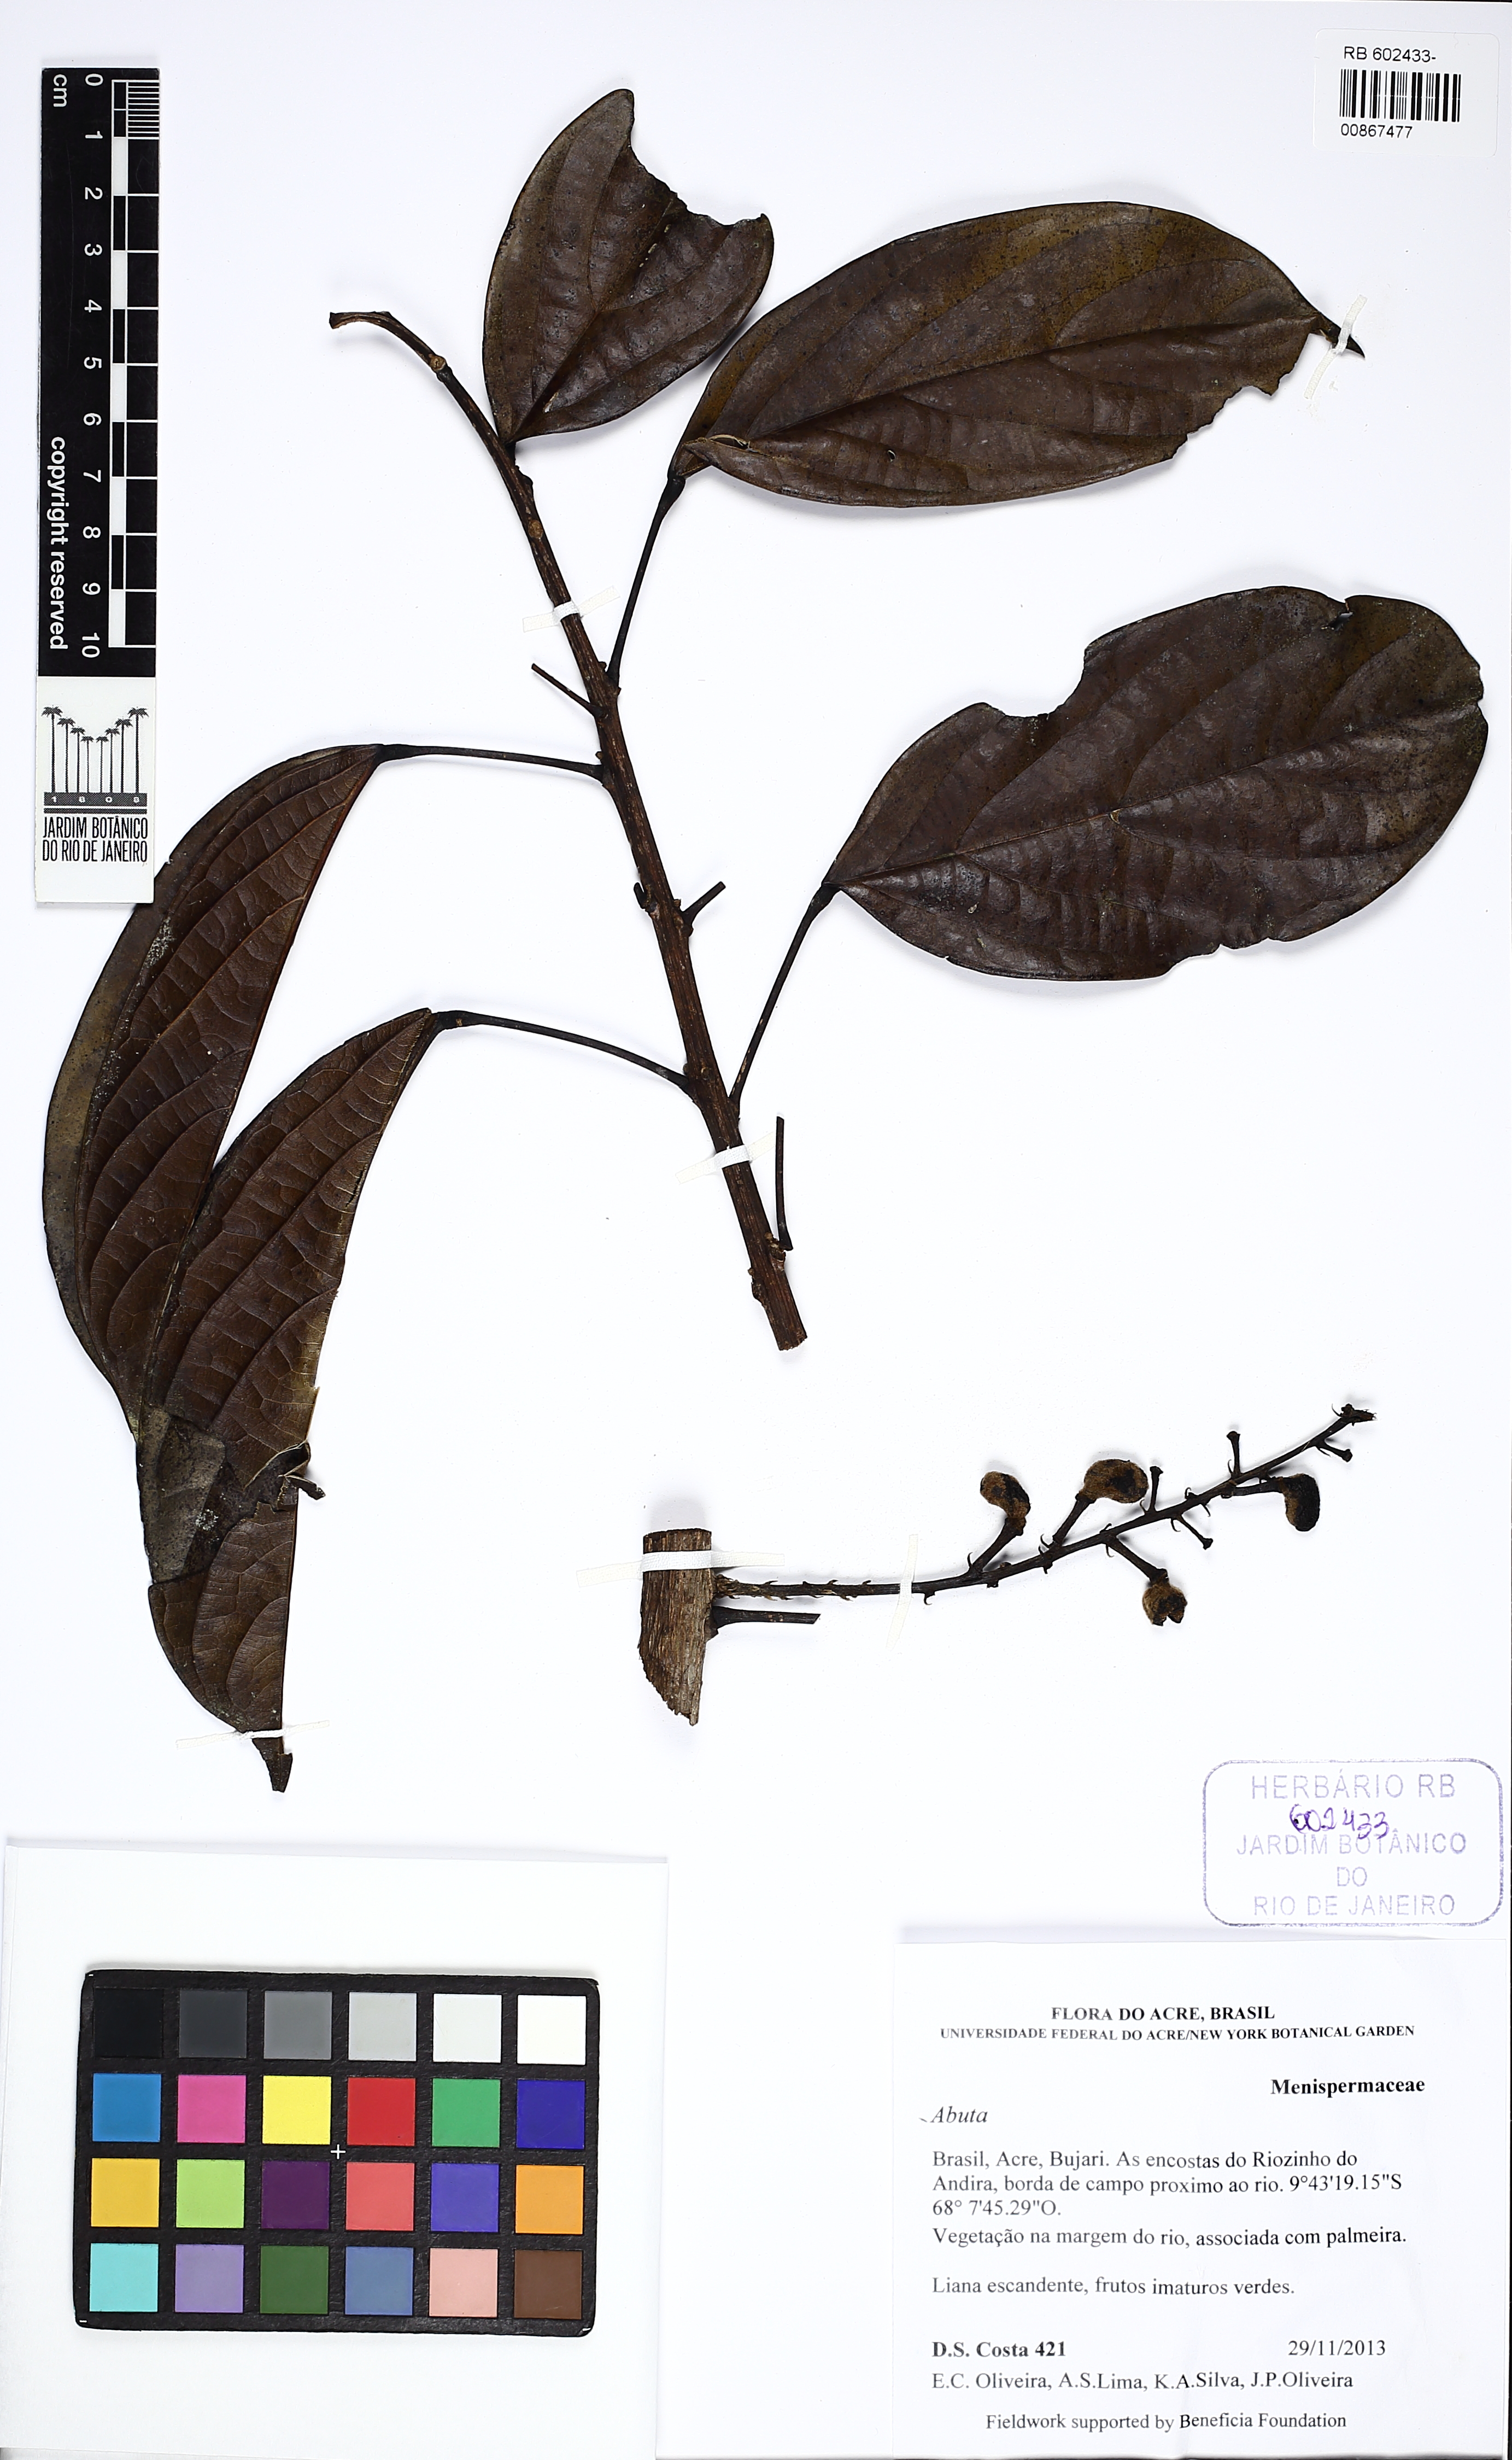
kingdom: Plantae
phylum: Tracheophyta
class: Magnoliopsida
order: Ranunculales
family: Menispermaceae
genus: Abuta
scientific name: Abuta
